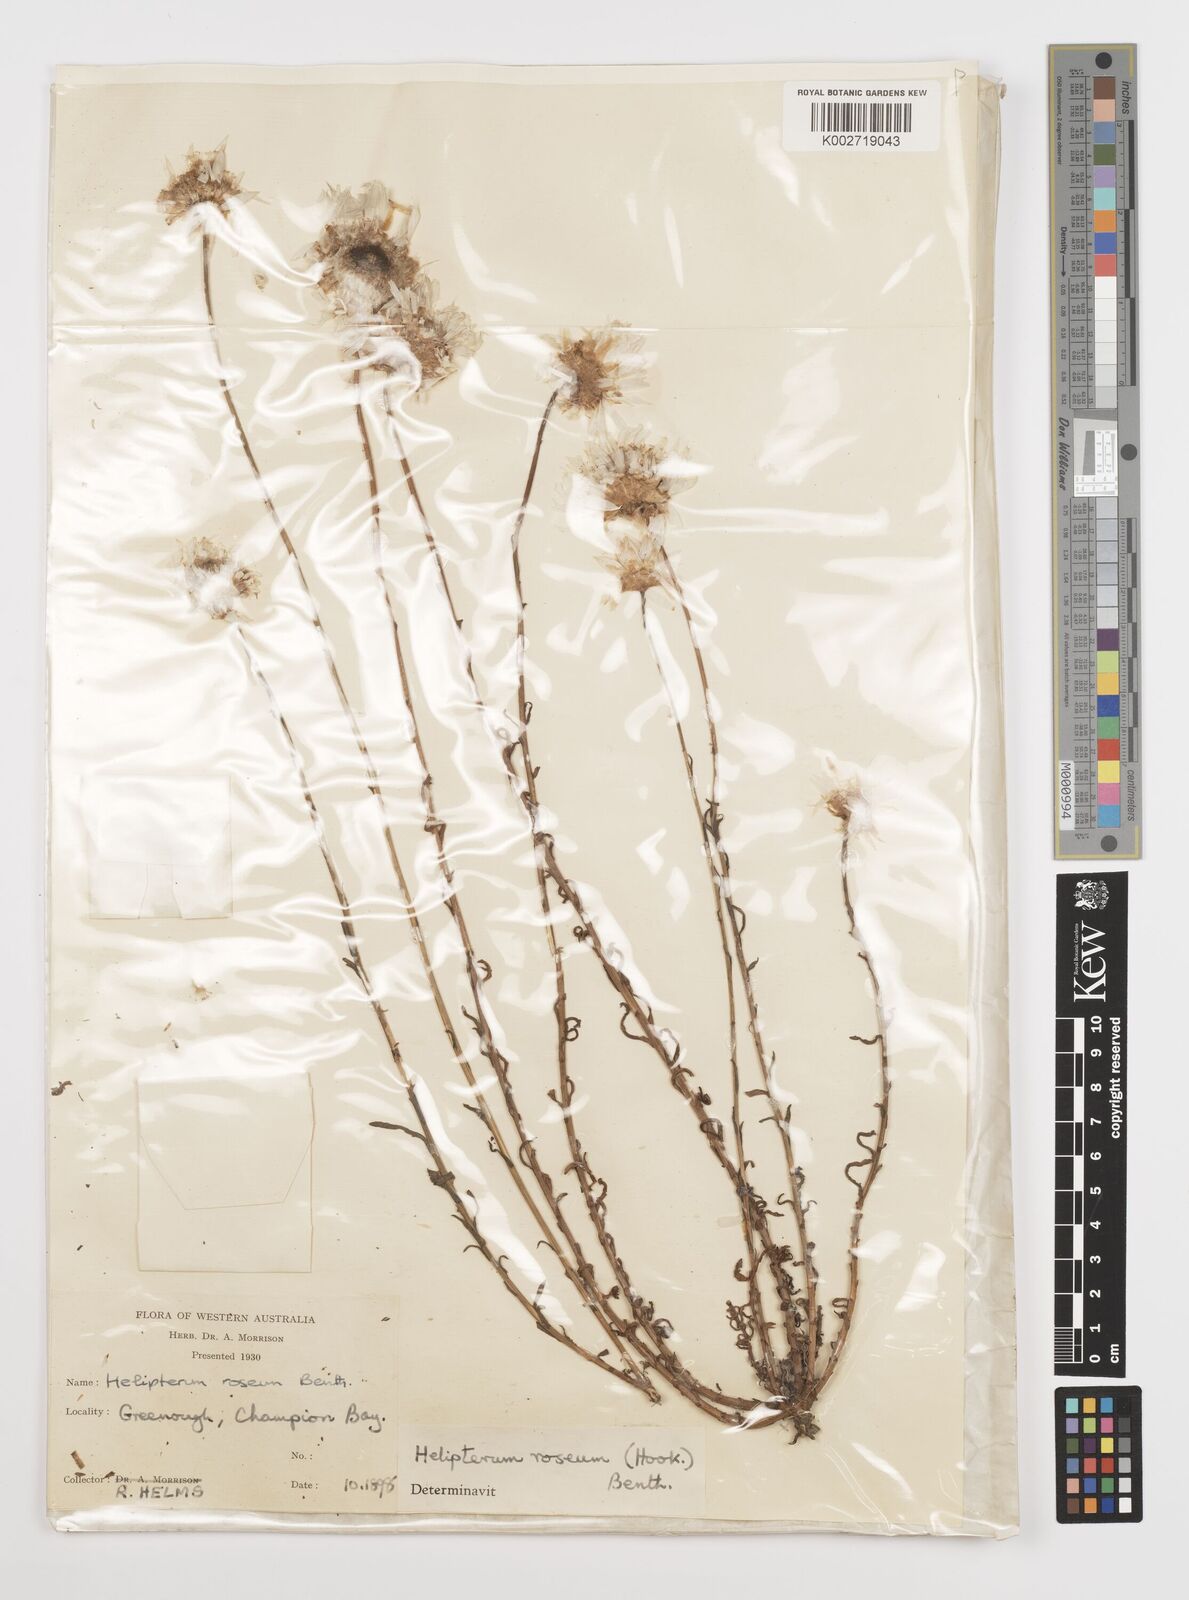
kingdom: Plantae
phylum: Tracheophyta
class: Magnoliopsida
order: Asterales
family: Asteraceae
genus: Rhodanthe
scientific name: Rhodanthe chlorocephala
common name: Rosy sunray
